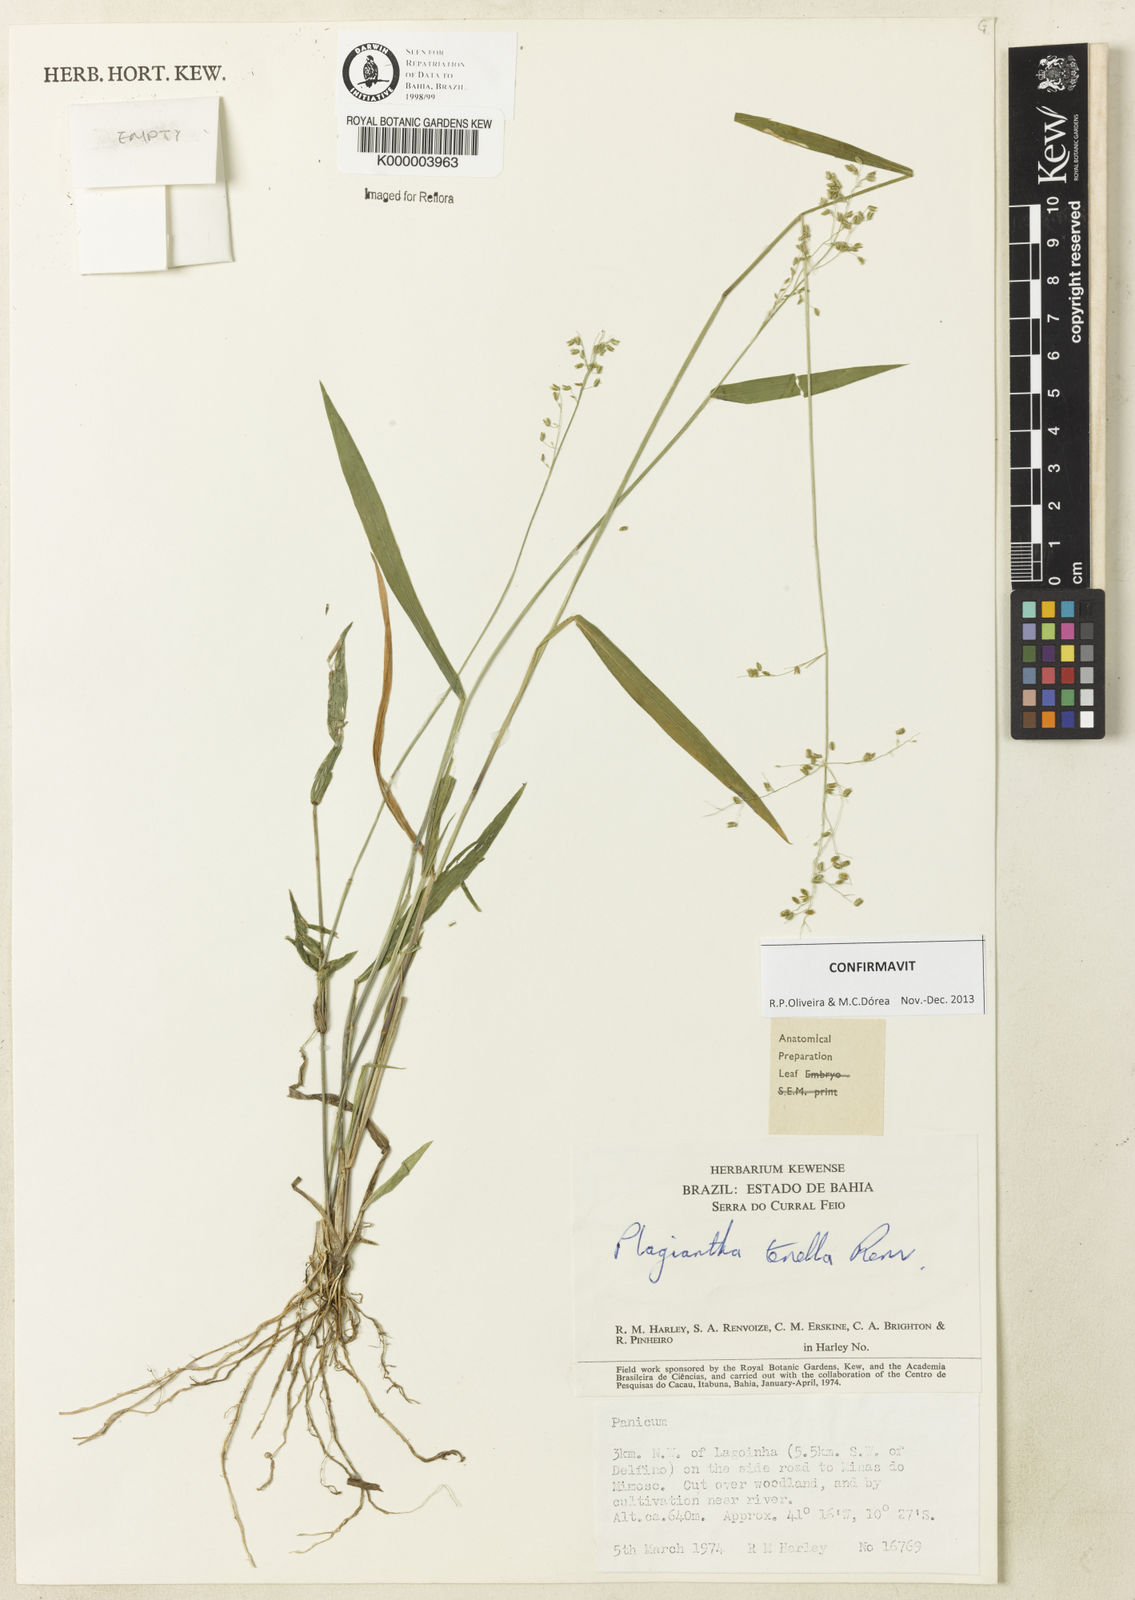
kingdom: Plantae
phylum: Tracheophyta
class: Liliopsida
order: Poales
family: Poaceae
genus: Plagiantha
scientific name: Plagiantha tenella
